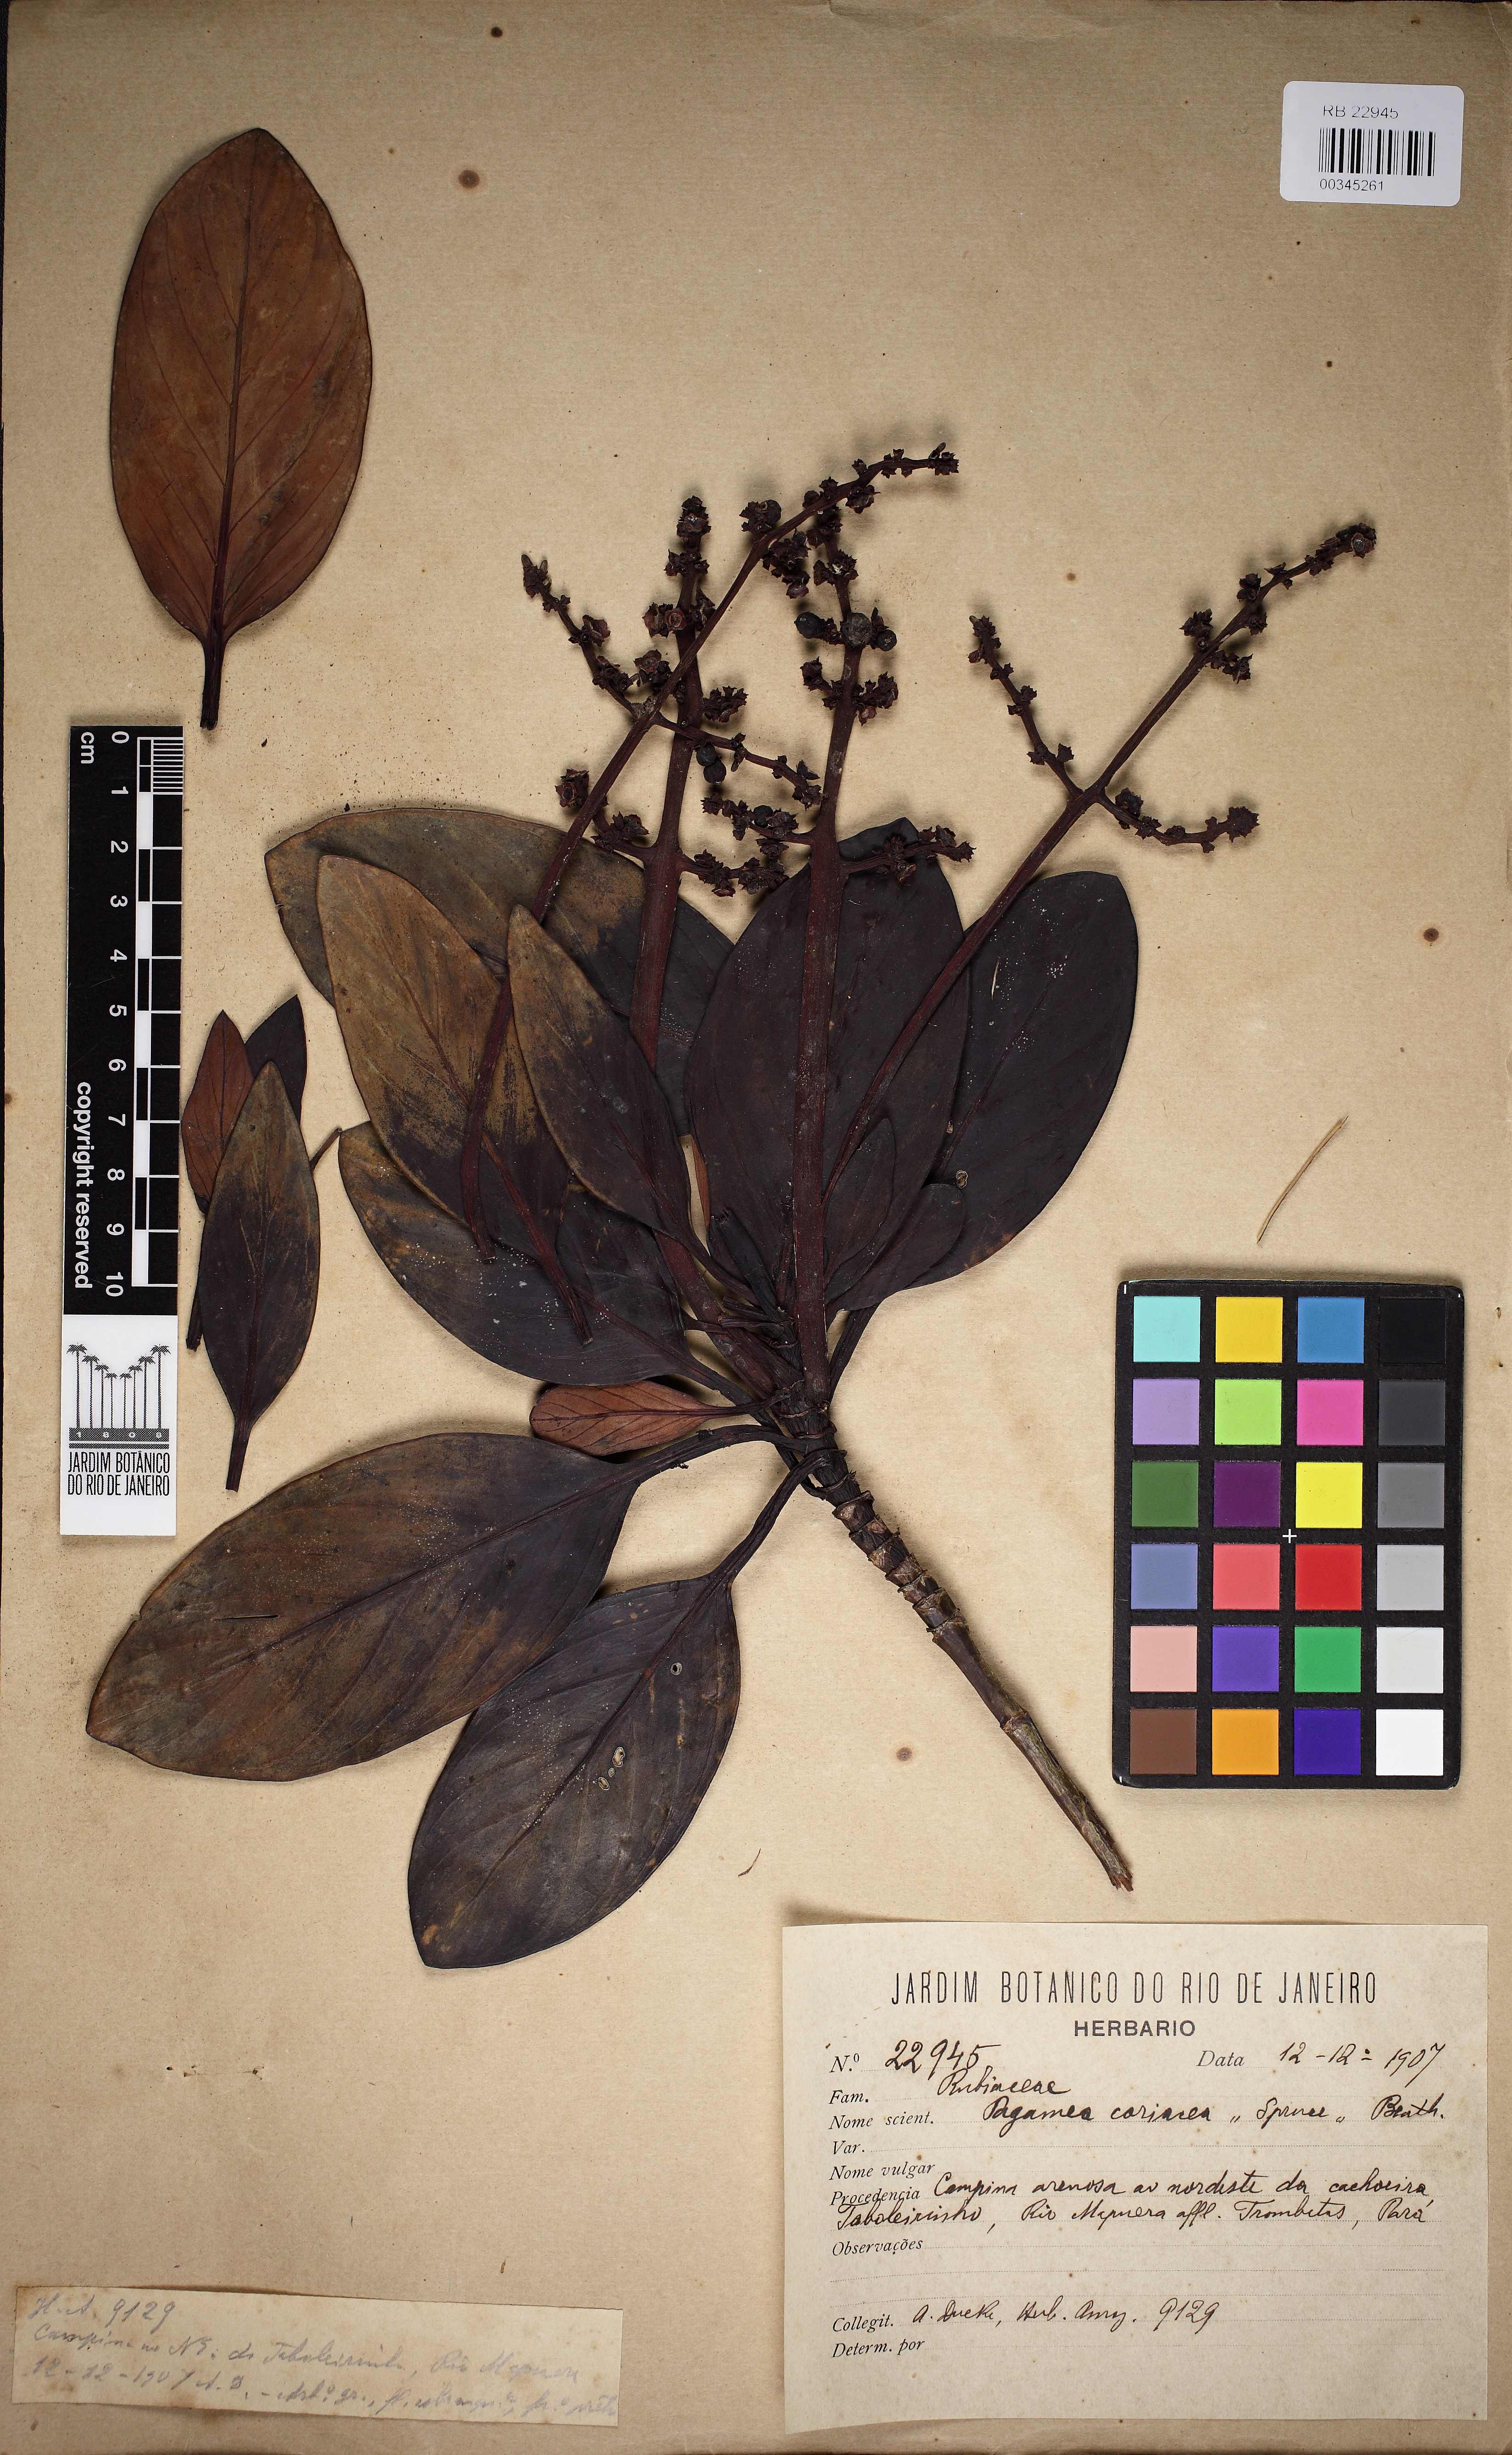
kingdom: Plantae
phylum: Tracheophyta
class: Magnoliopsida
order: Gentianales
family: Rubiaceae
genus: Pagamea
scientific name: Pagamea coriacea
